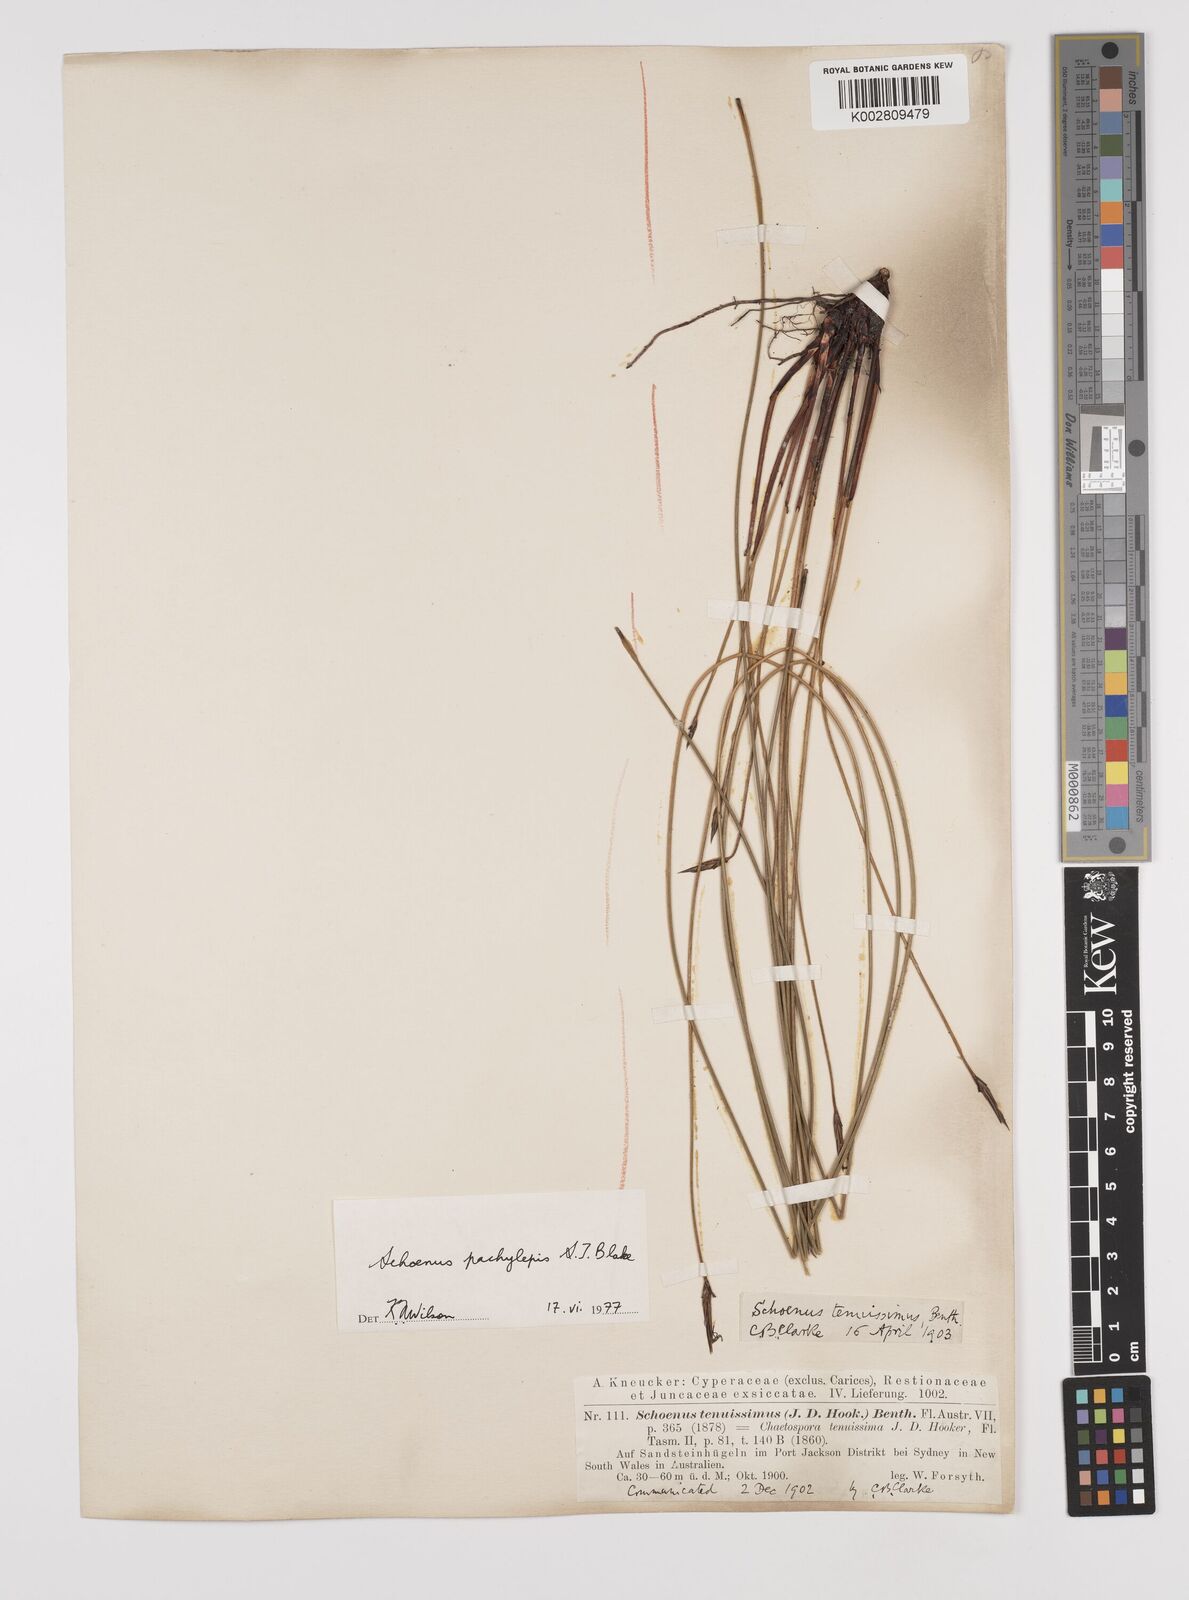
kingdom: Plantae
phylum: Tracheophyta
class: Liliopsida
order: Poales
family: Cyperaceae
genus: Schoenus
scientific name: Schoenus lepidosperma
